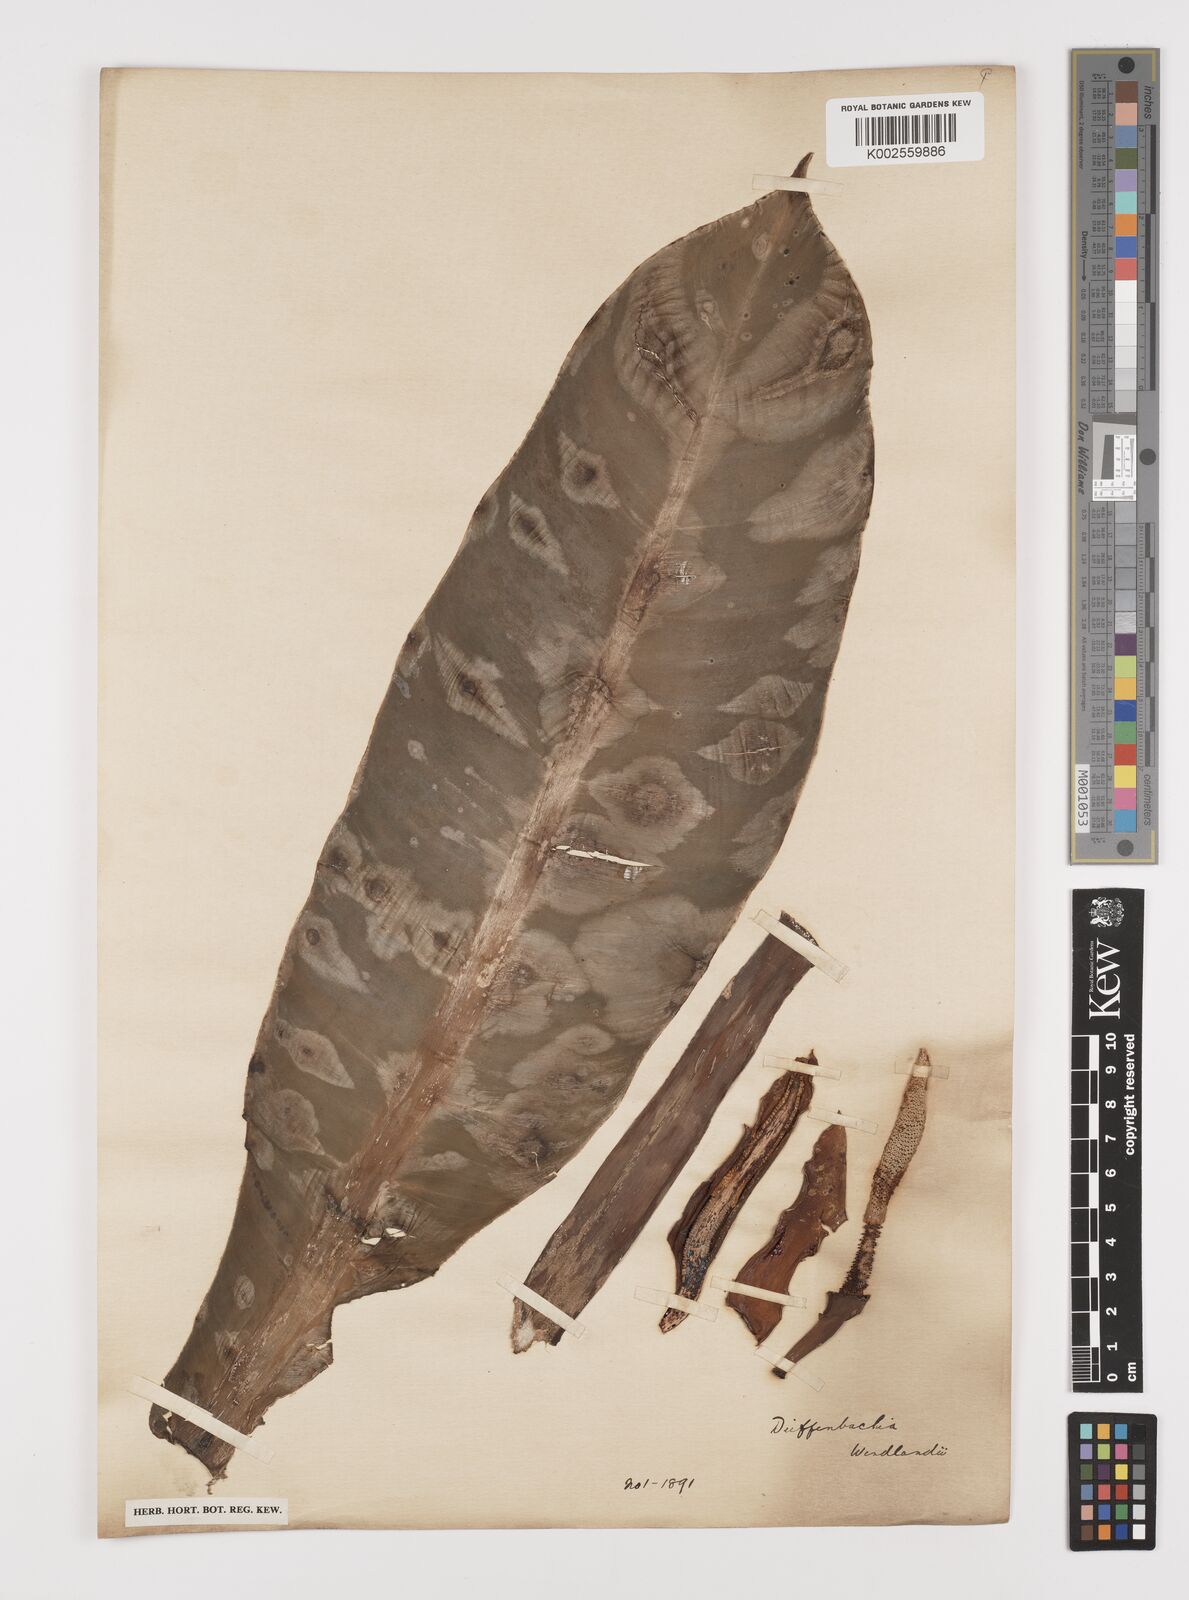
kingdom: Plantae
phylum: Tracheophyta
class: Liliopsida
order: Alismatales
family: Araceae
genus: Philodendron
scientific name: Philodendron wendlandii
